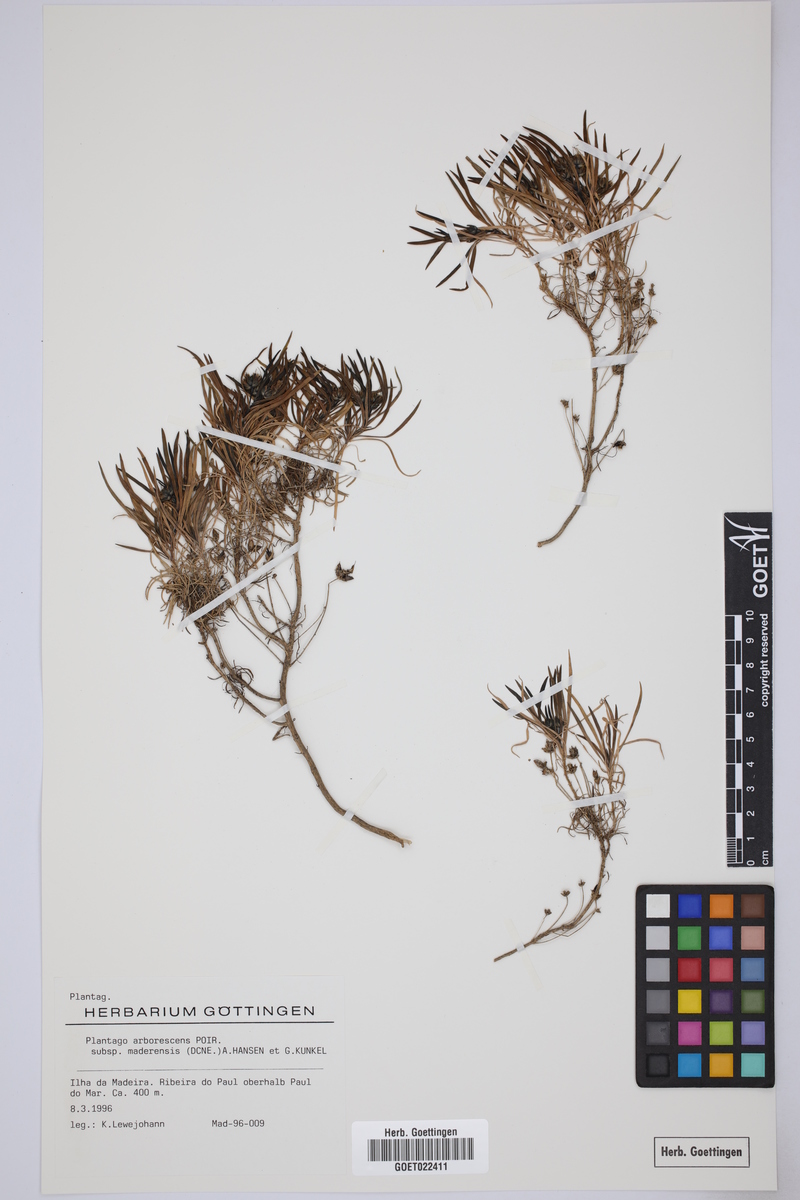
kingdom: Plantae
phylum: Tracheophyta
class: Magnoliopsida
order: Lamiales
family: Plantaginaceae
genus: Plantago
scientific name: Plantago arborescens
